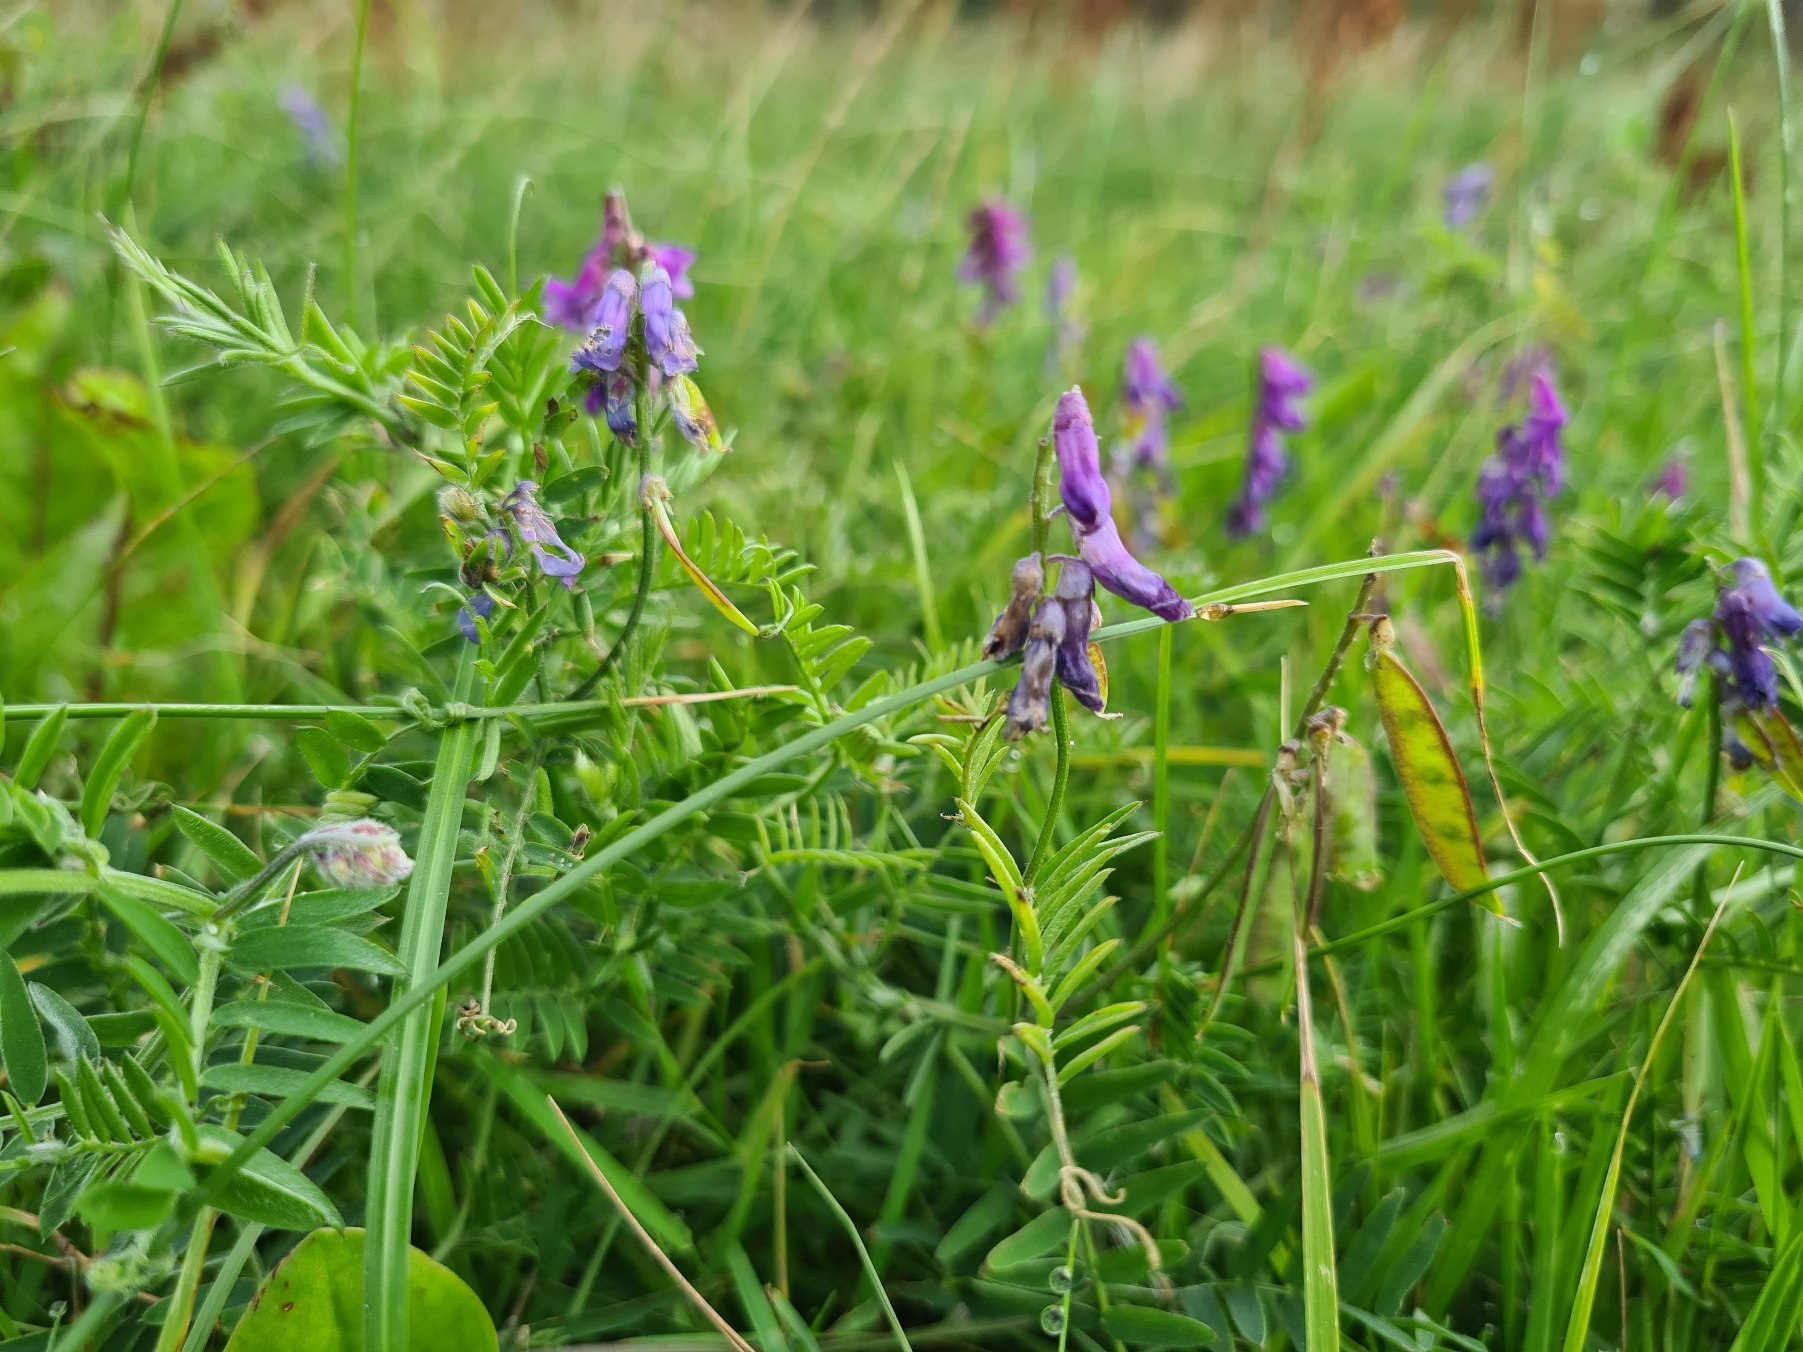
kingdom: Plantae
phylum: Tracheophyta
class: Magnoliopsida
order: Fabales
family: Fabaceae
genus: Vicia
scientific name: Vicia cracca
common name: Muse-vikke
